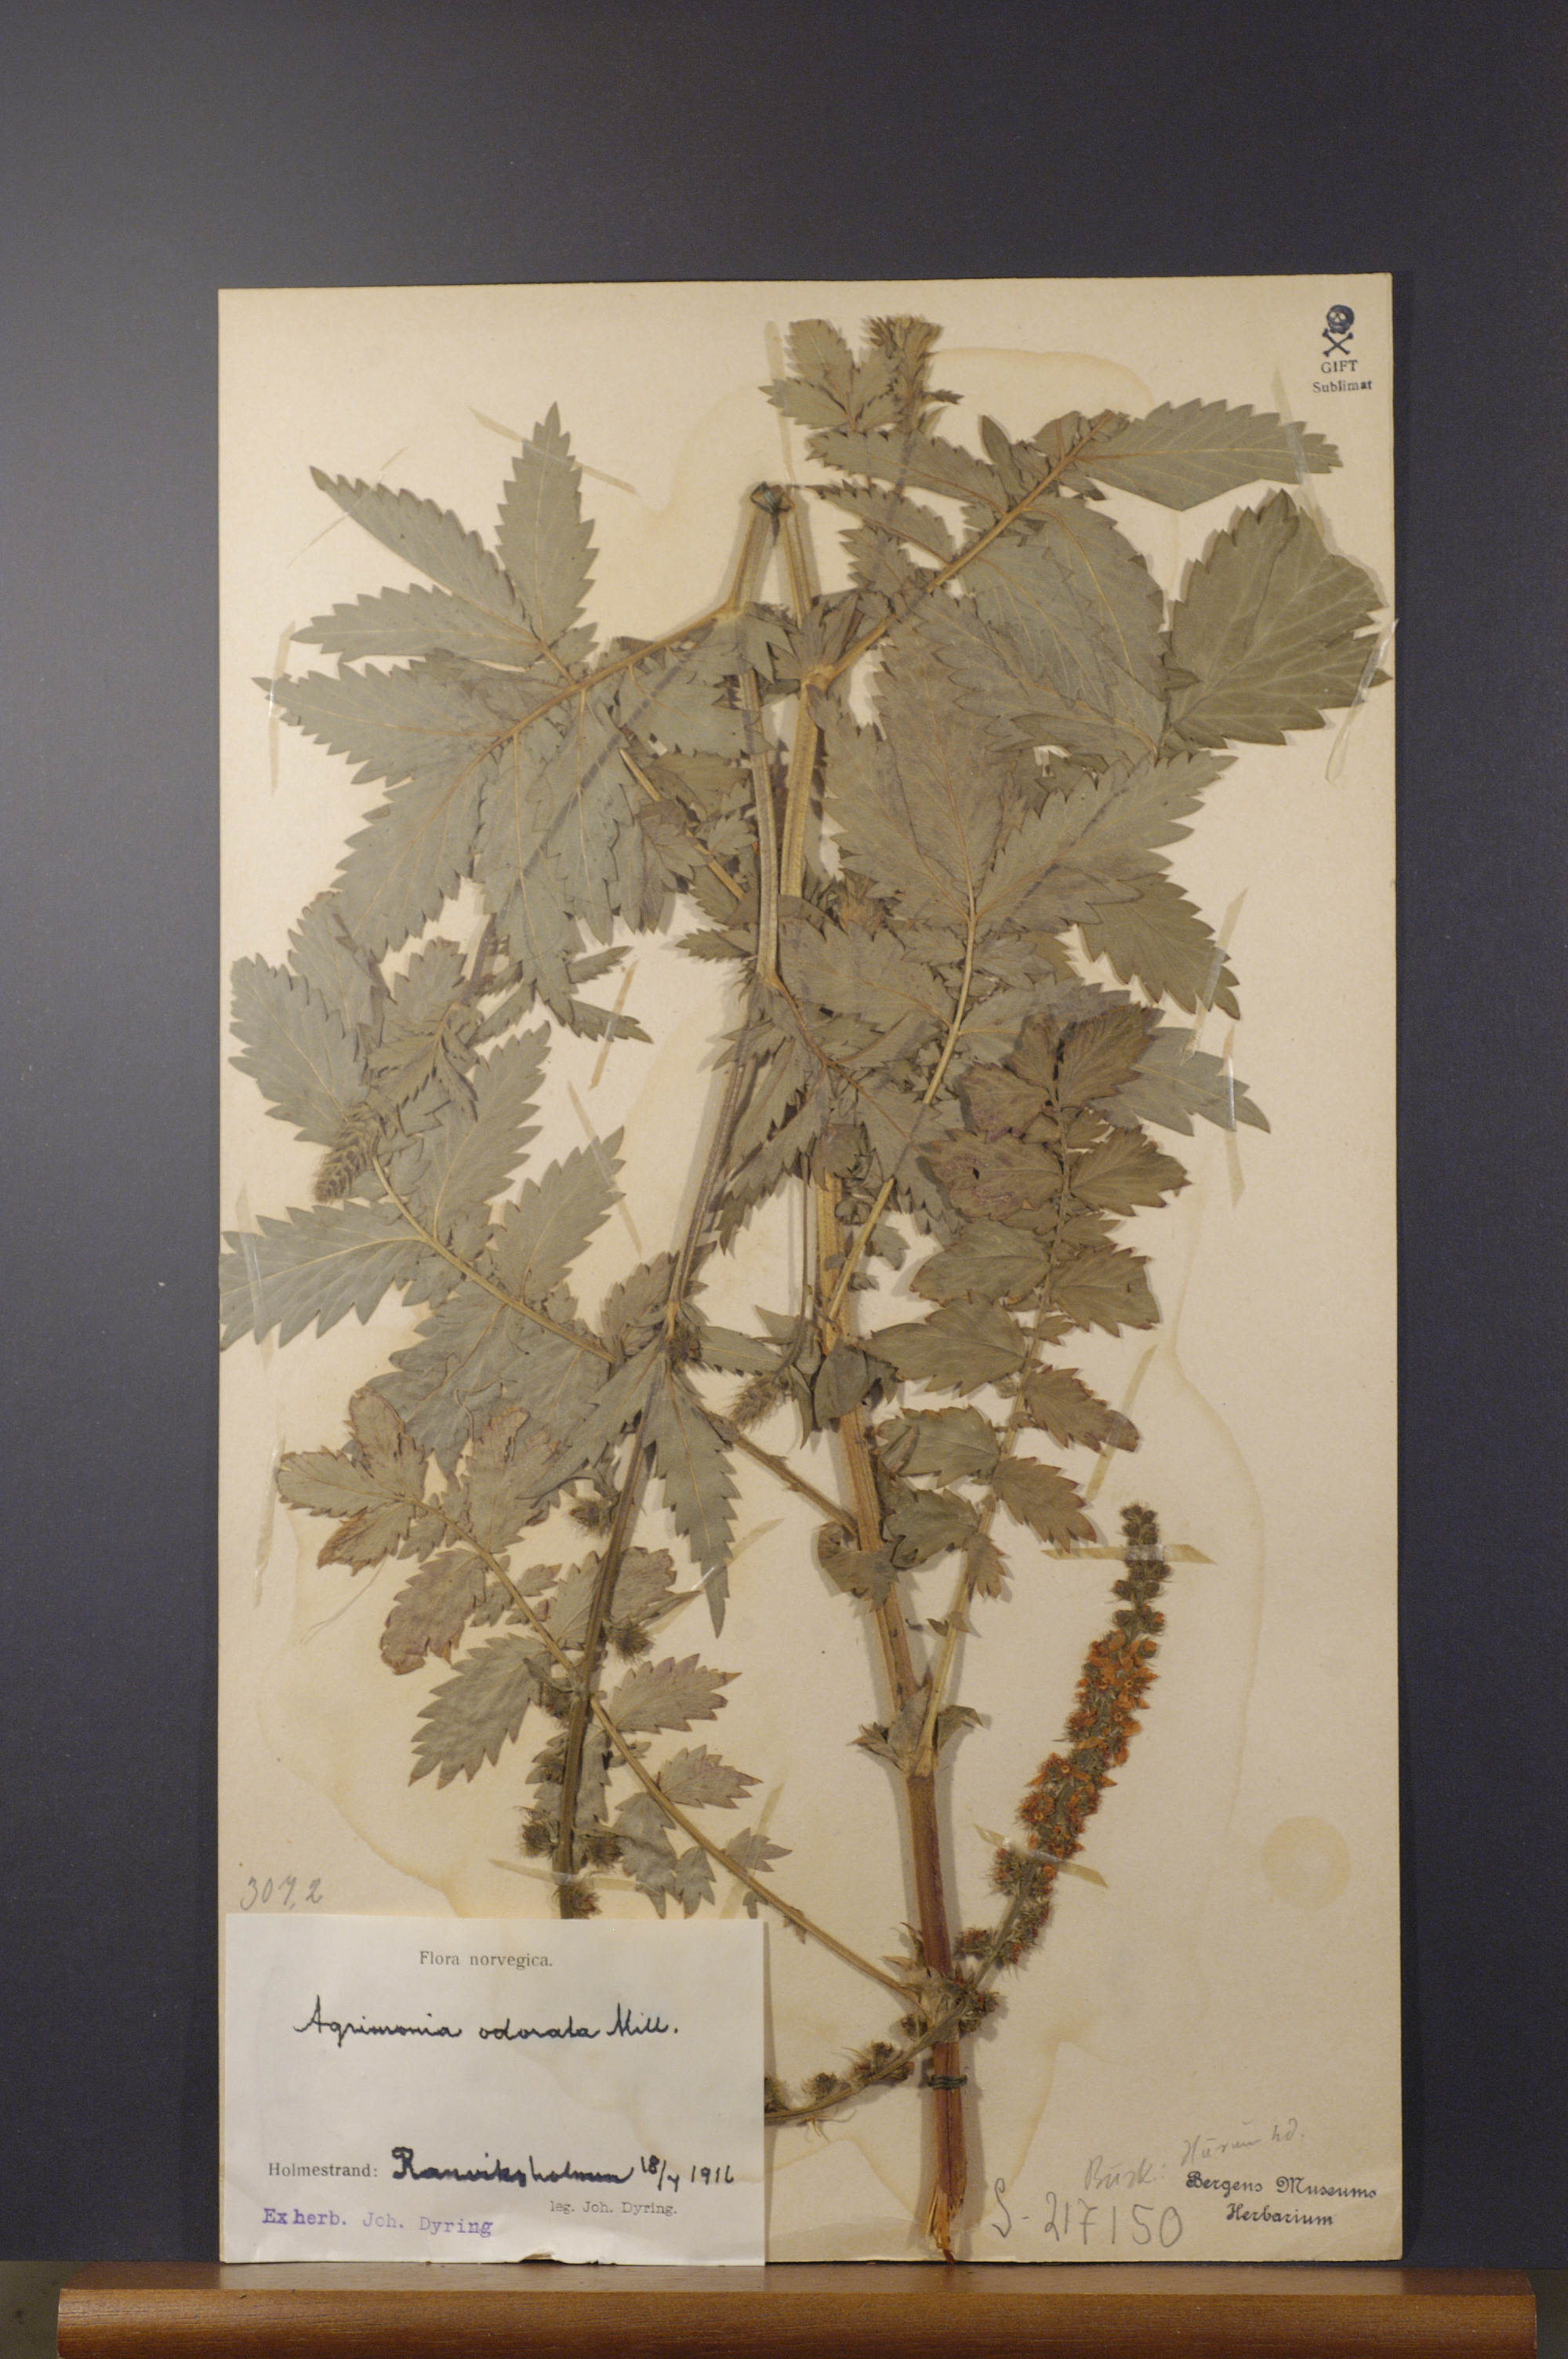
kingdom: Plantae
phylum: Tracheophyta
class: Magnoliopsida
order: Rosales
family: Rosaceae
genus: Agrimonia
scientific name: Agrimonia procera
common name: Fragrant agrimony
